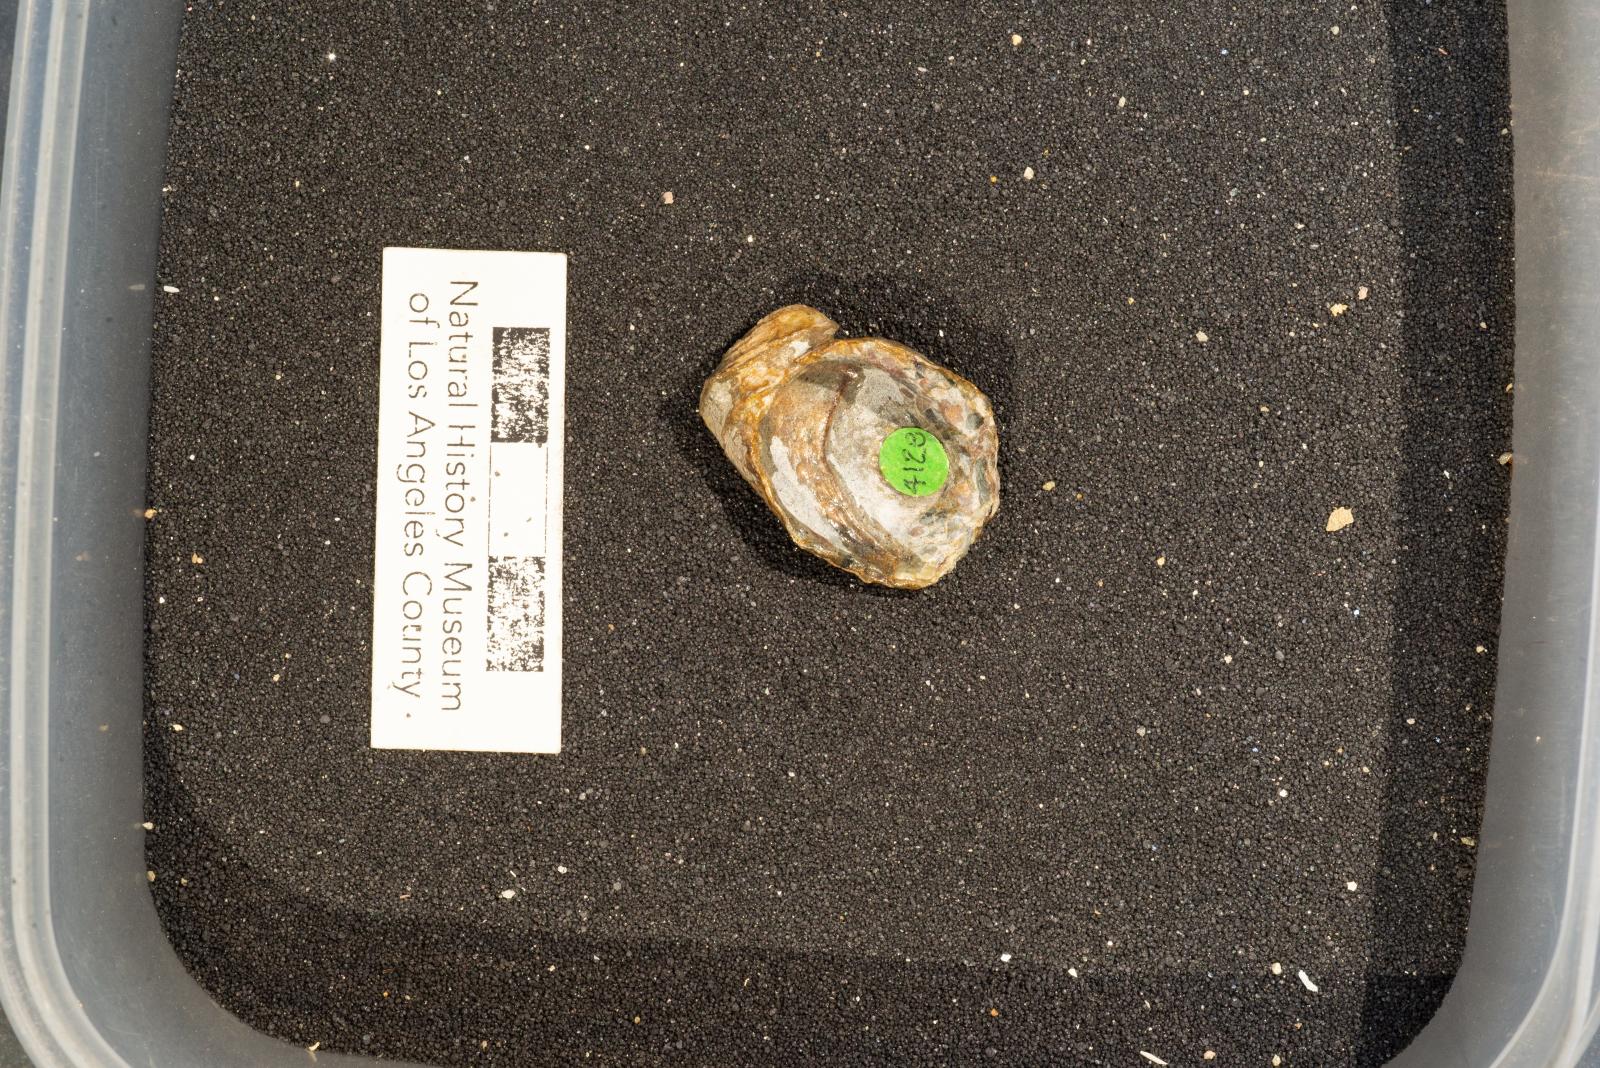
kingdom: Animalia
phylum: Mollusca
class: Gastropoda
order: Littorinimorpha
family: Calyptraeidae
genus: Lysis
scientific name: Lysis duplicosta
